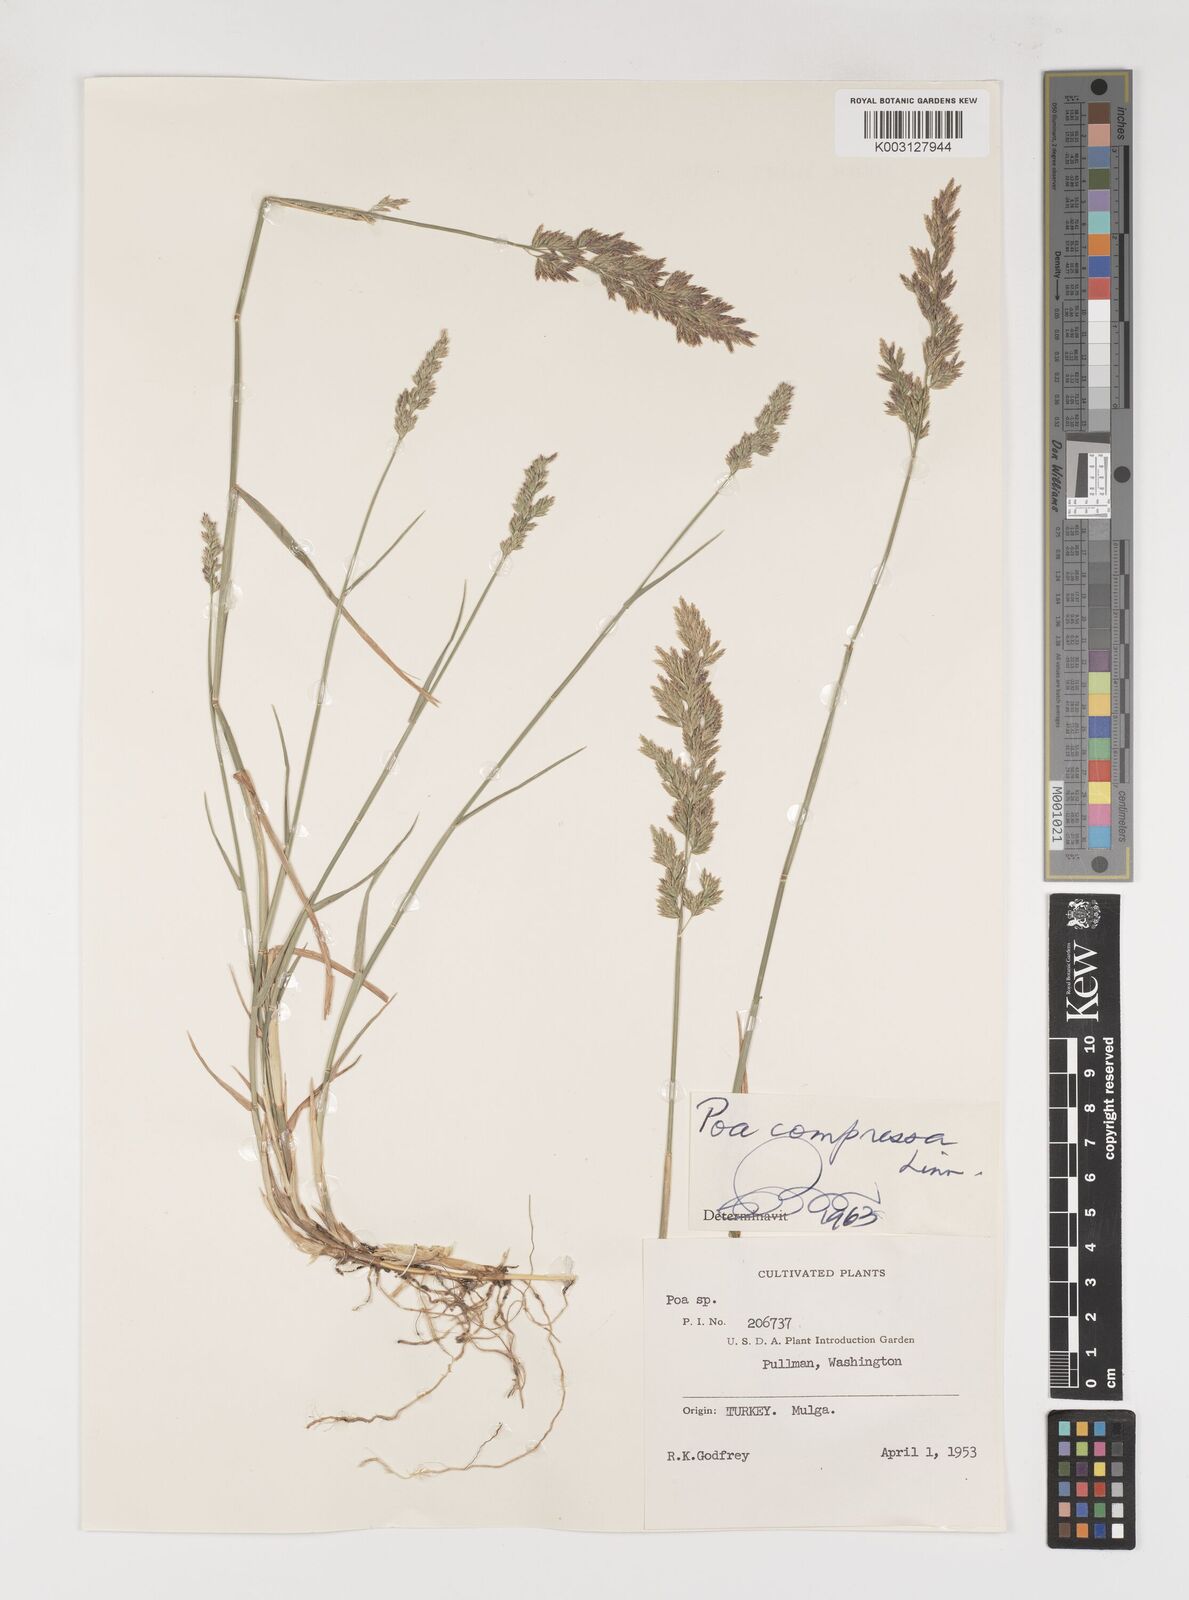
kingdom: Plantae
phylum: Tracheophyta
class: Liliopsida
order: Poales
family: Poaceae
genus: Poa
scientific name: Poa compressa
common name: Canada bluegrass
